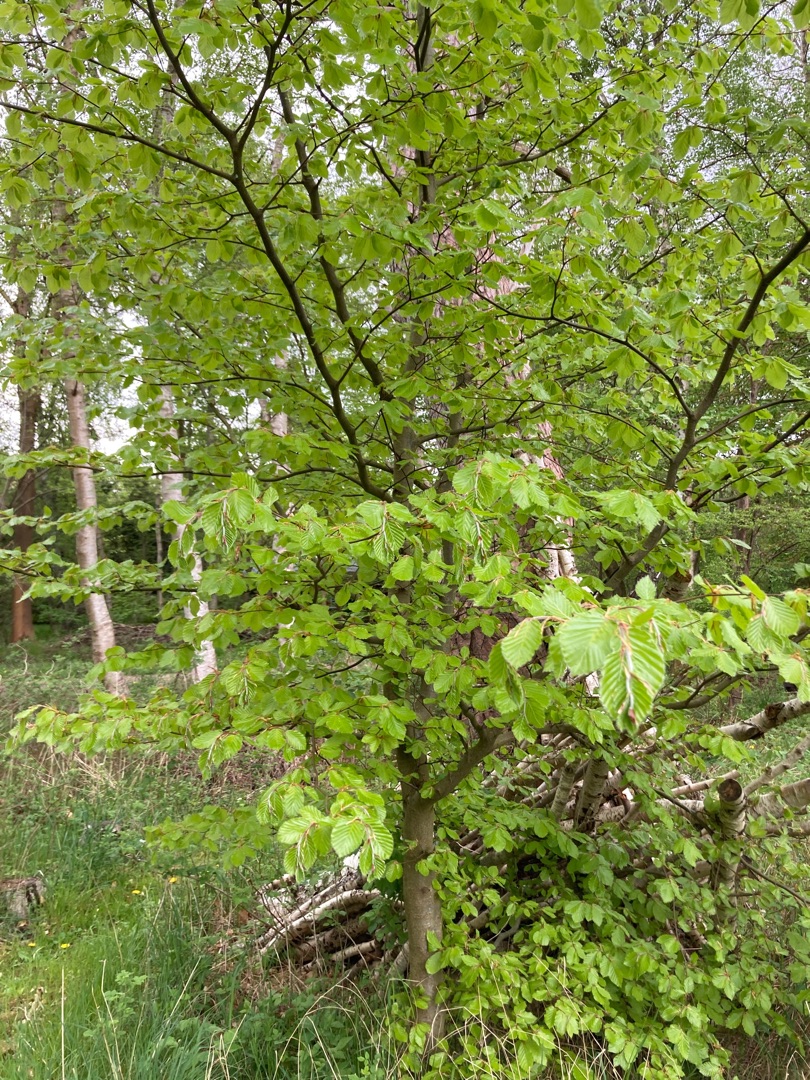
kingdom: Plantae
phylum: Tracheophyta
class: Magnoliopsida
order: Fagales
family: Fagaceae
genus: Fagus
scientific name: Fagus sylvatica
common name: Bøg
